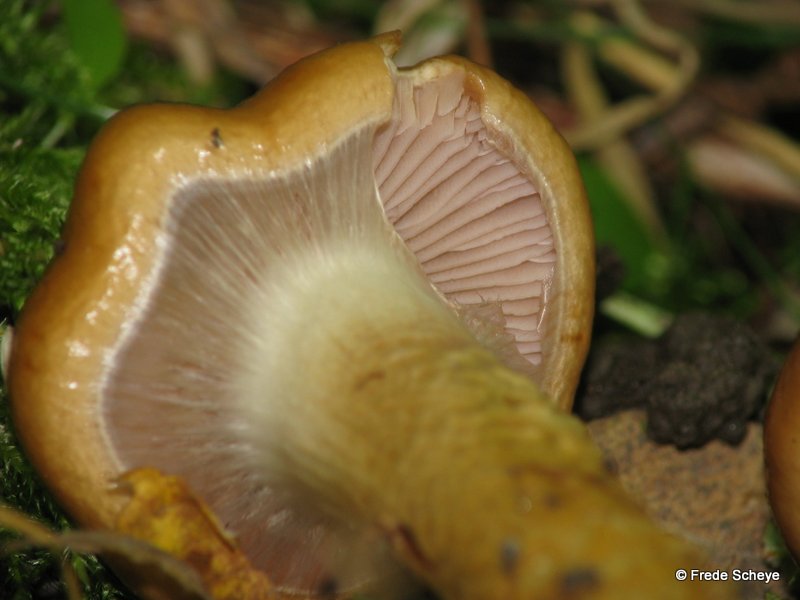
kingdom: Fungi
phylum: Basidiomycota
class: Agaricomycetes
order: Agaricales
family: Cortinariaceae
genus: Cortinarius
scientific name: Cortinarius trivialis
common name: brunslimet slørhat
